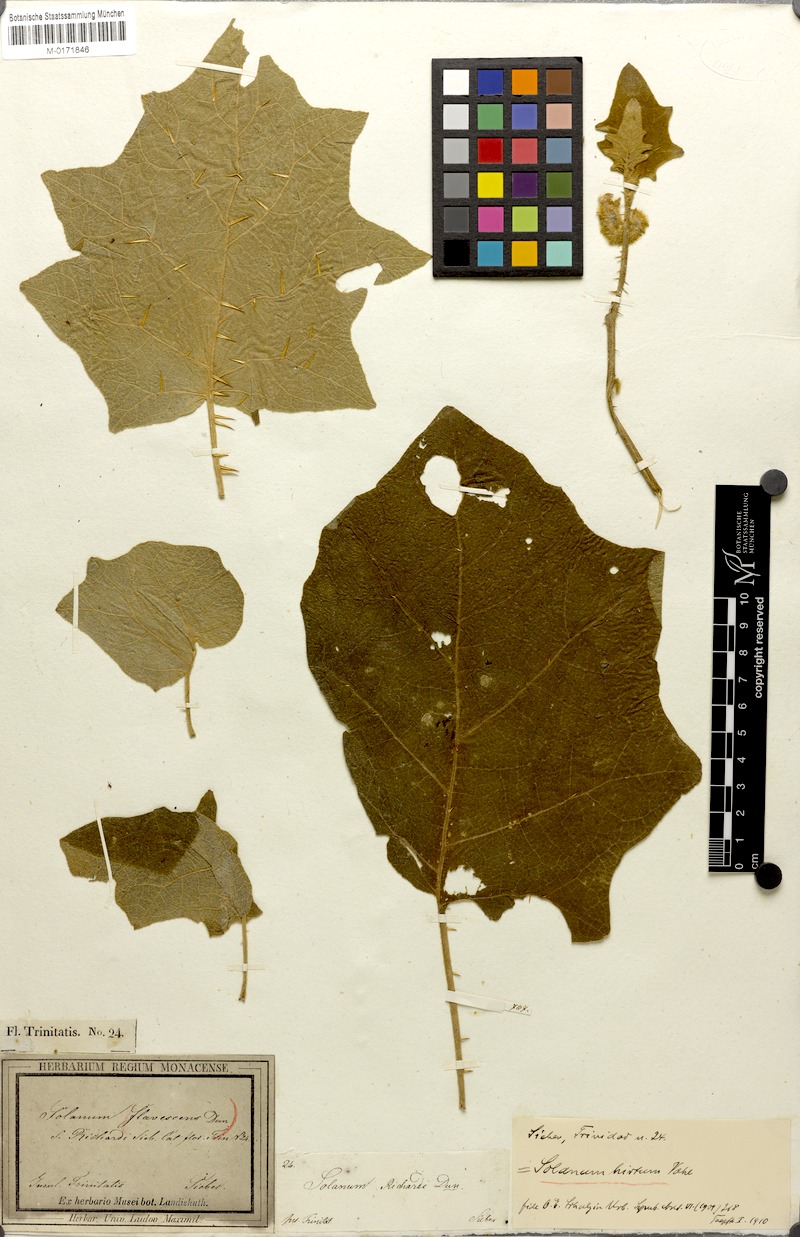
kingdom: Plantae
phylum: Tracheophyta
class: Magnoliopsida
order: Solanales
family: Solanaceae
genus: Solanum
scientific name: Solanum hirtum
